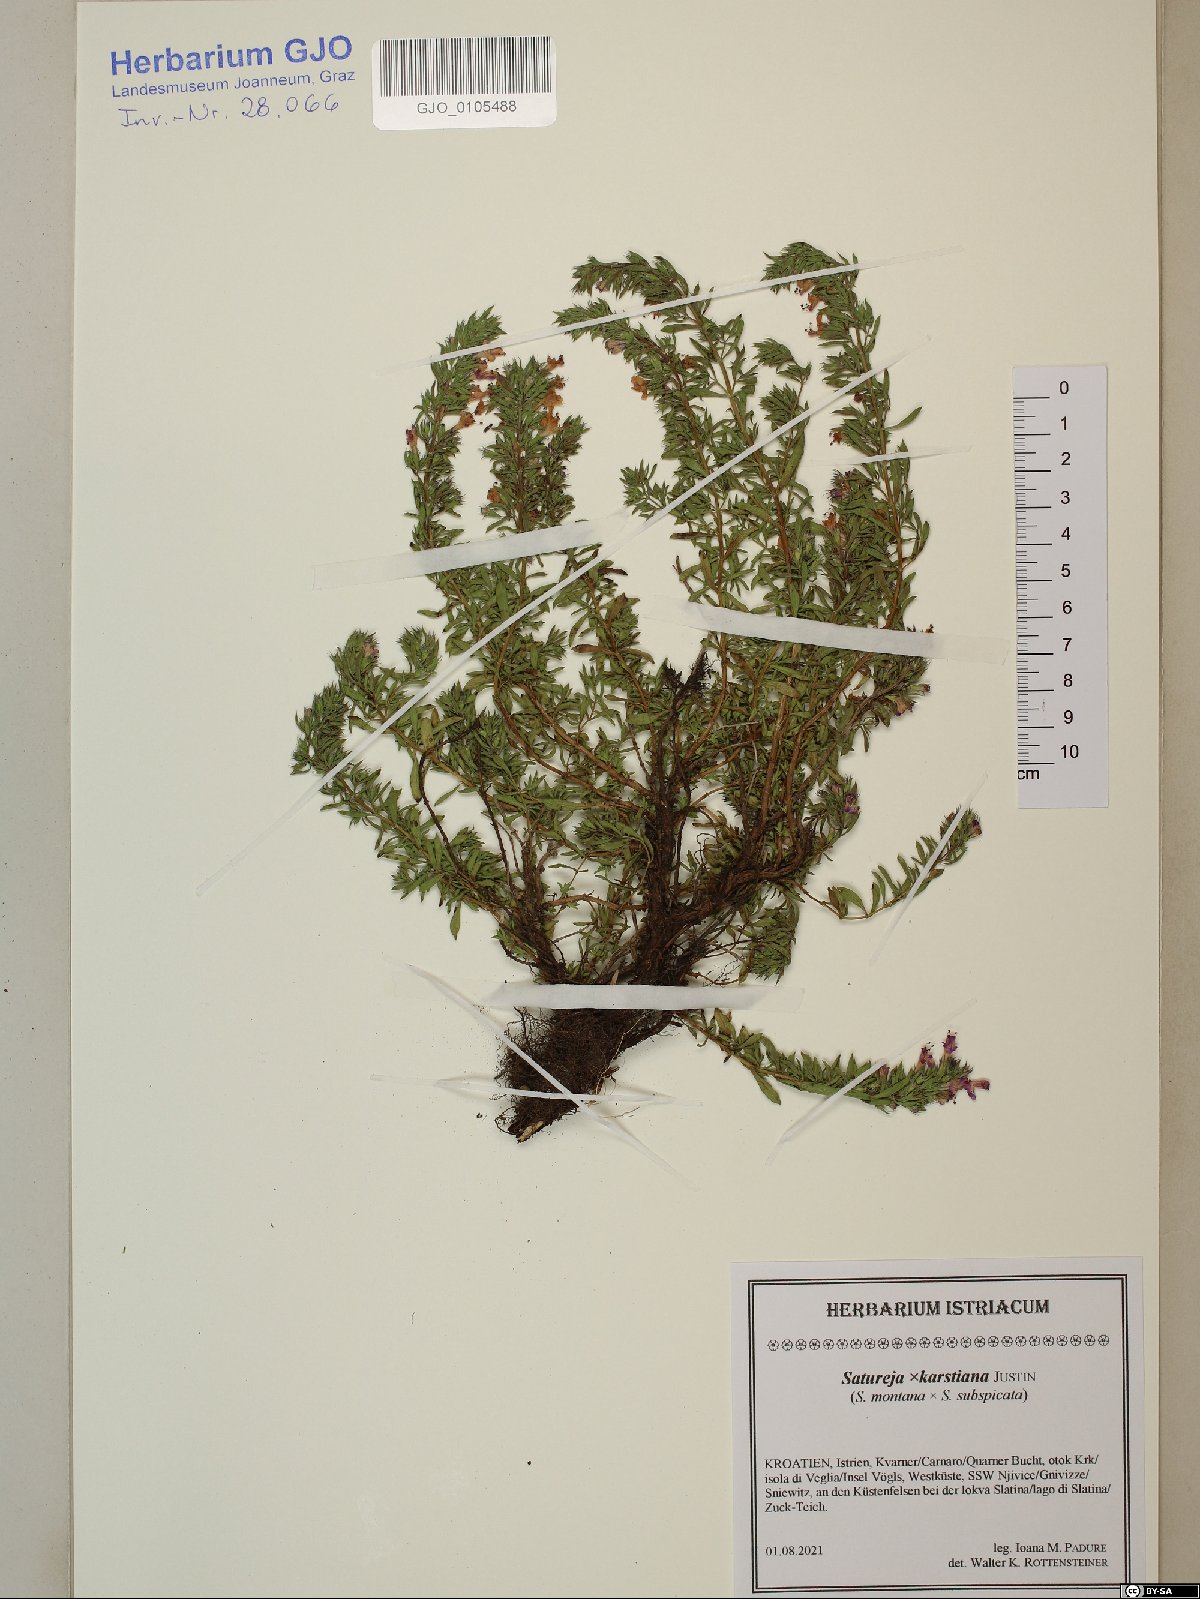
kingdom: Plantae
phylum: Tracheophyta
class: Magnoliopsida
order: Lamiales
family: Lamiaceae
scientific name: Lamiaceae
